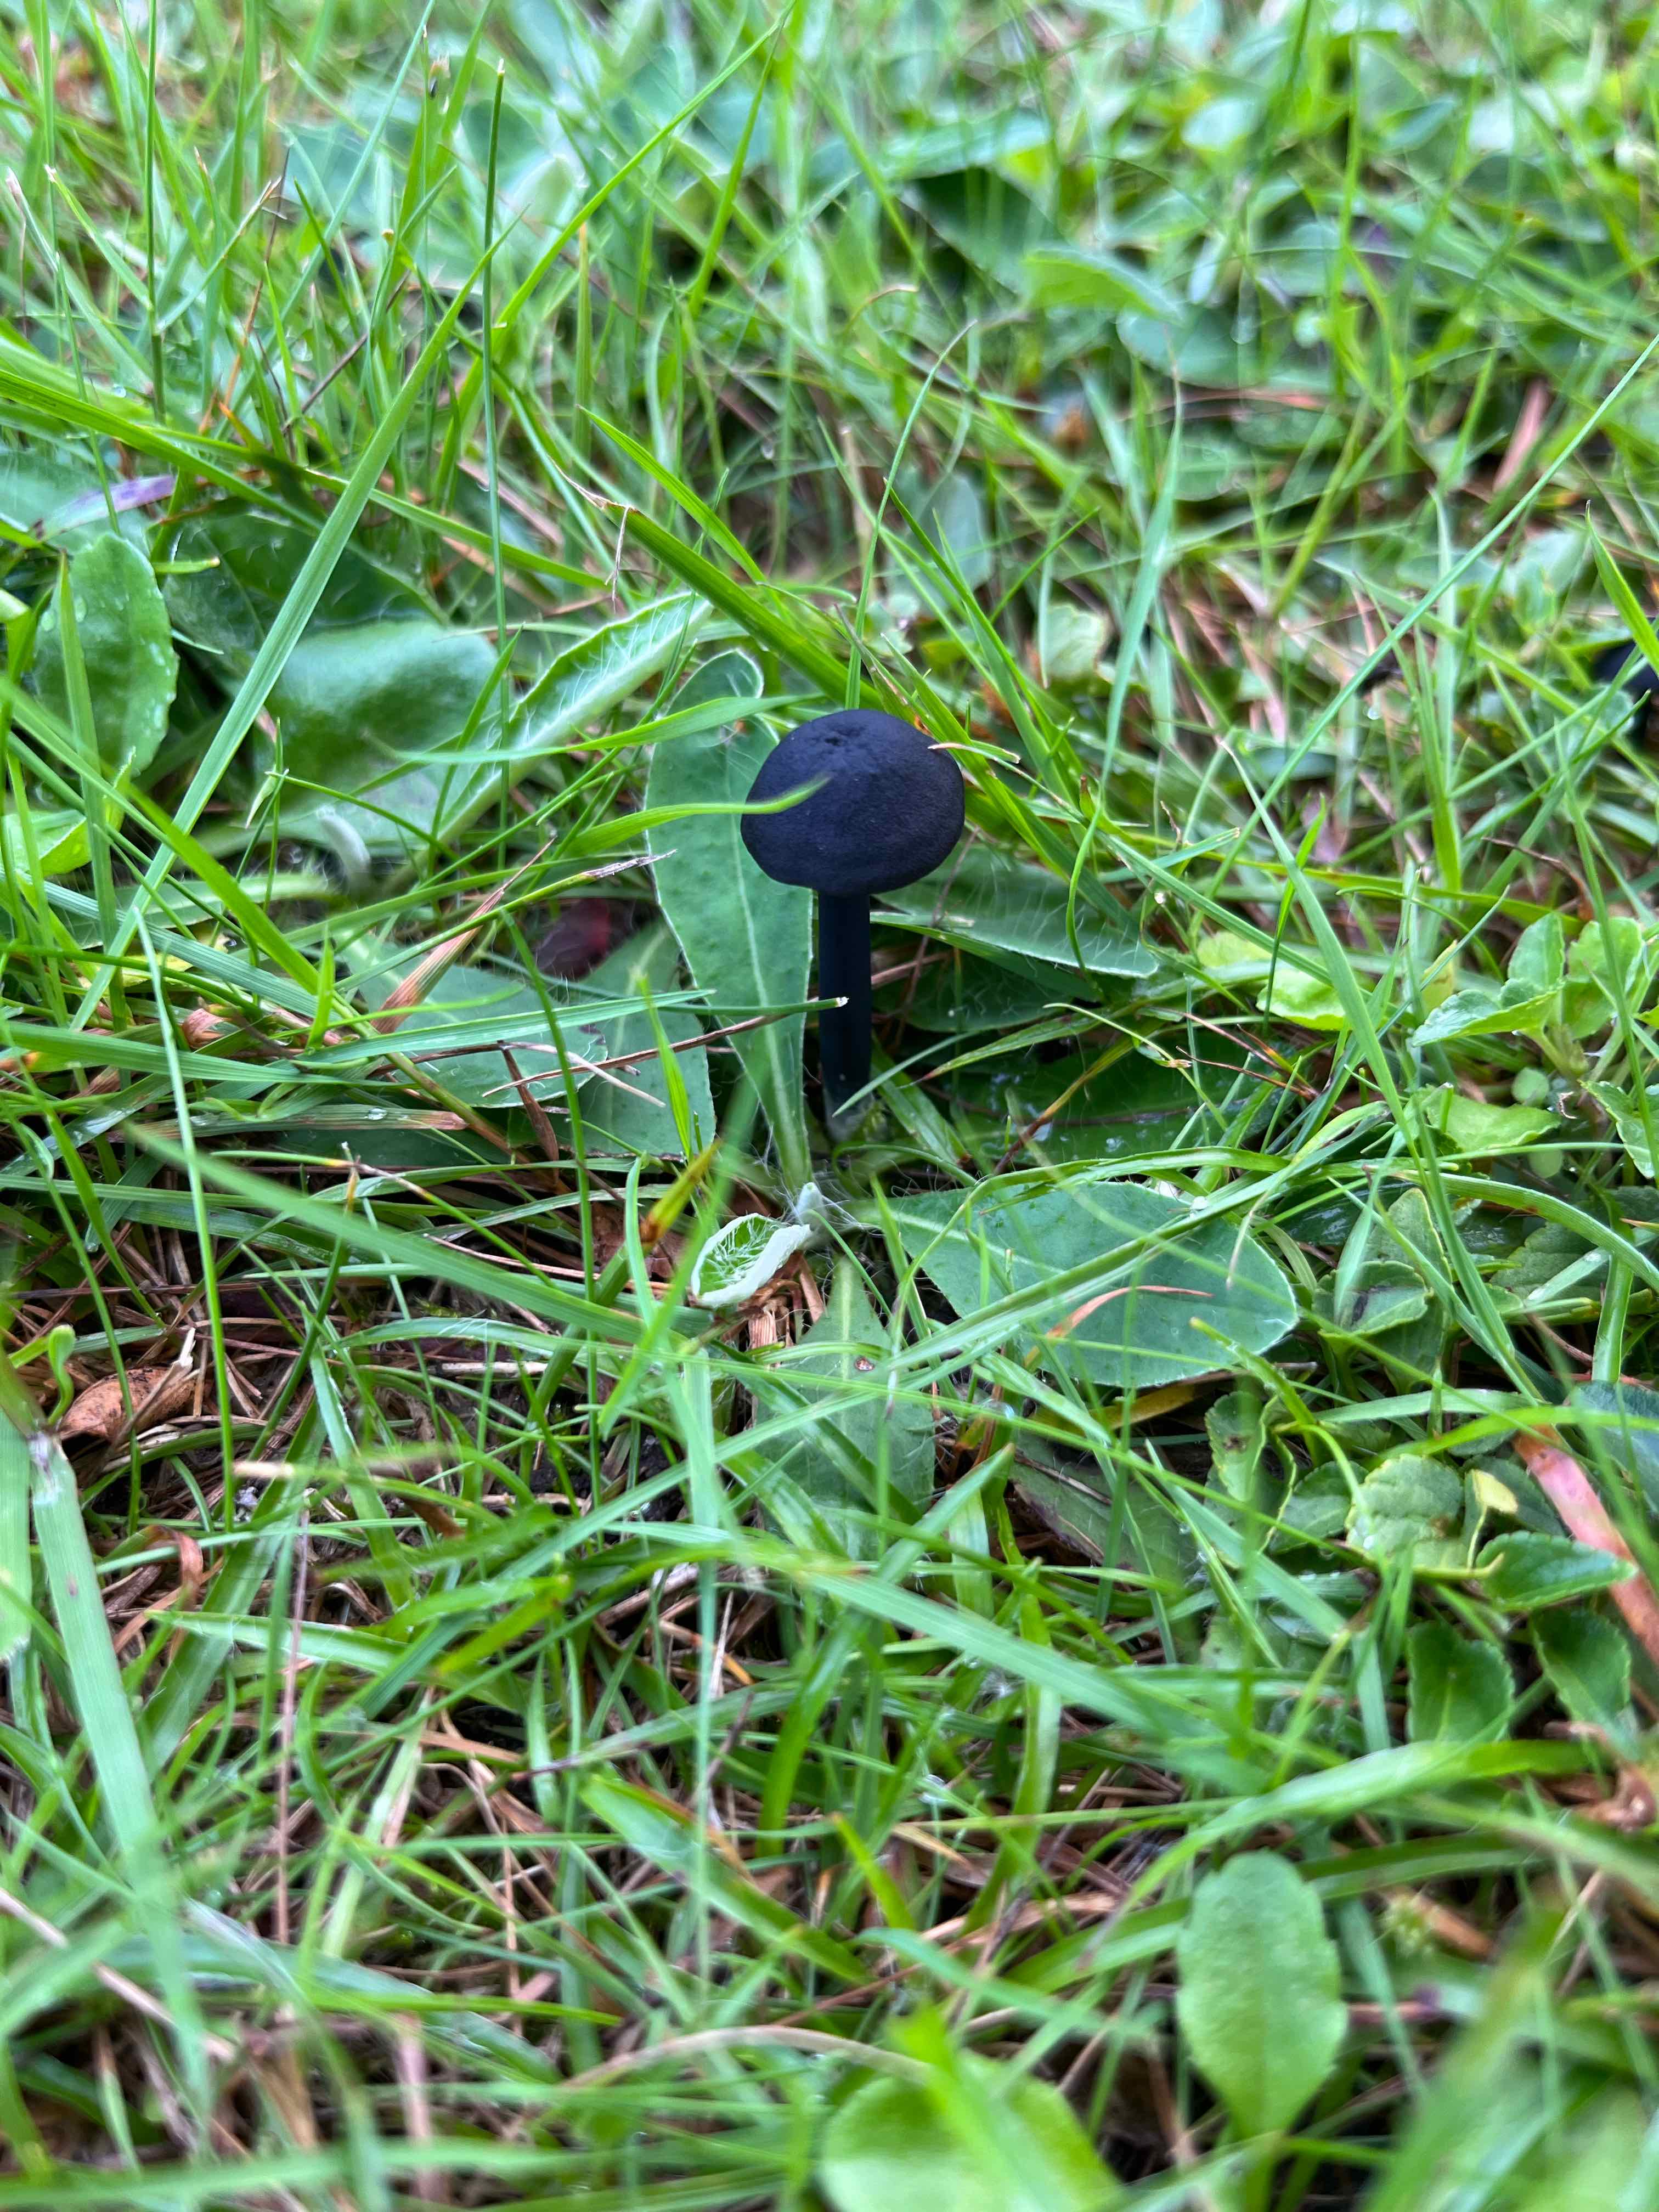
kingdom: Fungi
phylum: Basidiomycota
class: Agaricomycetes
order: Agaricales
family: Entolomataceae
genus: Entoloma
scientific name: Entoloma chalybeum
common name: blåbladet rødblad
